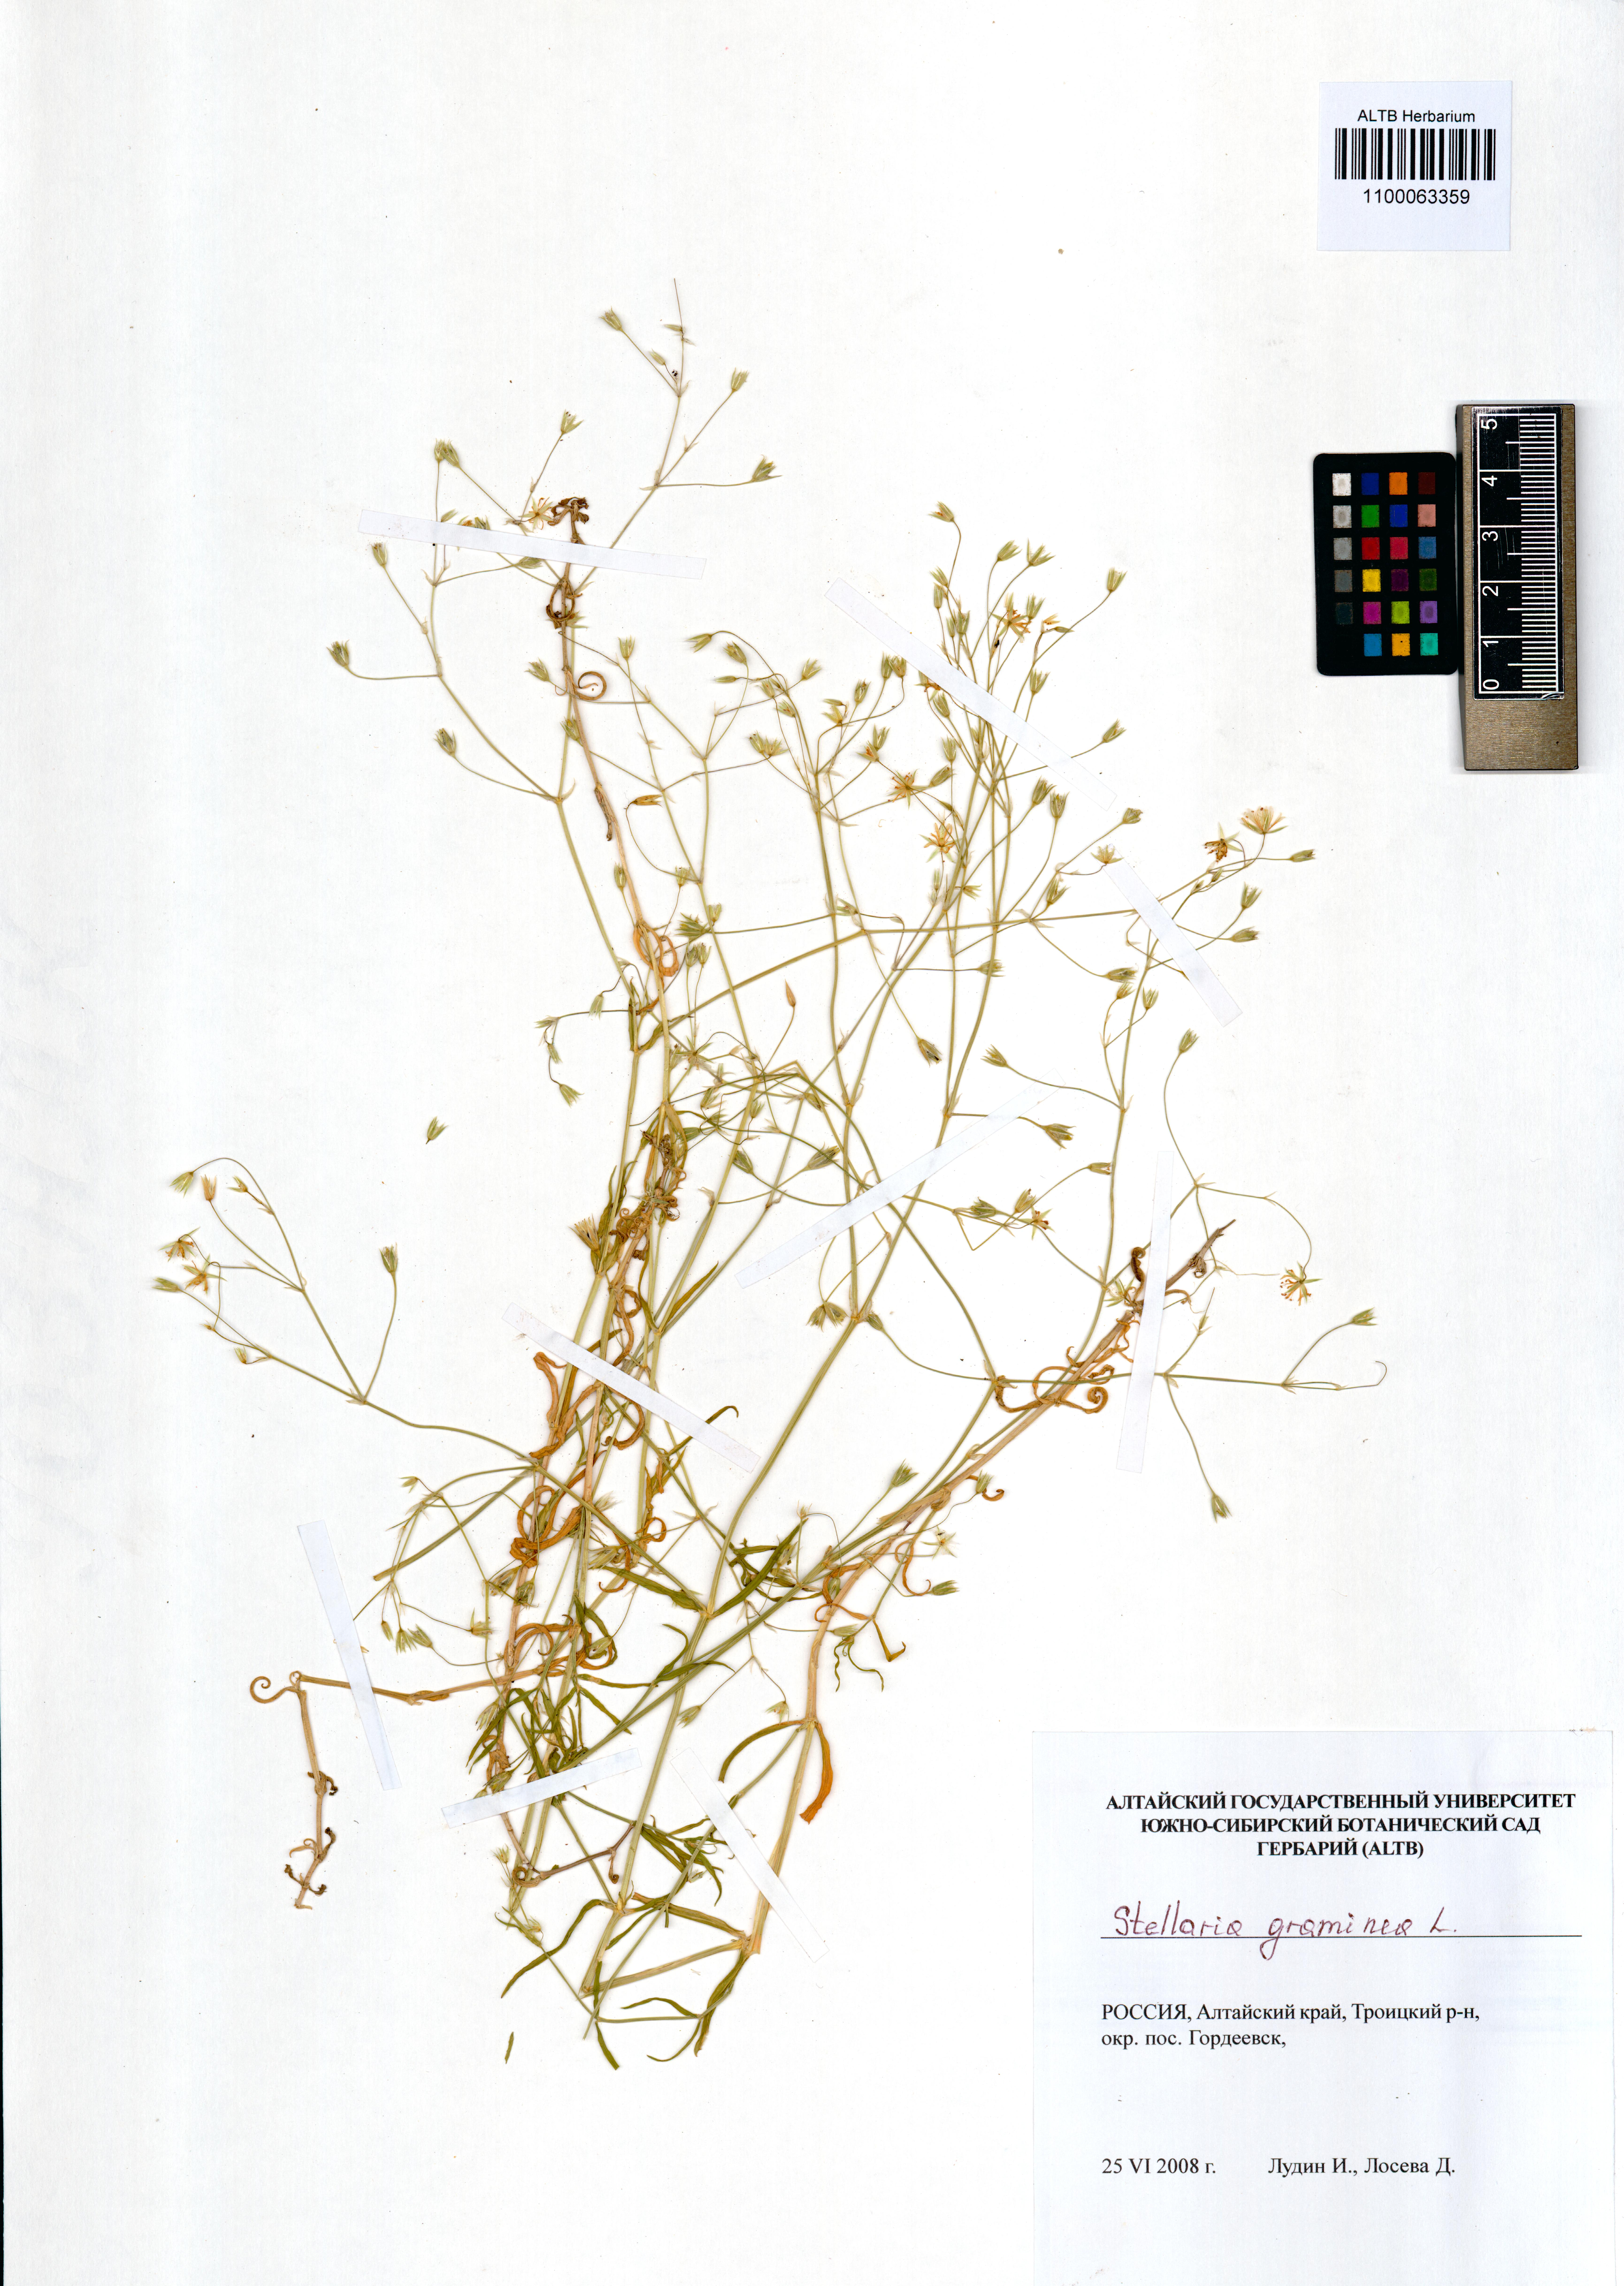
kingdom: Plantae
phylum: Tracheophyta
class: Magnoliopsida
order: Caryophyllales
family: Caryophyllaceae
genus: Stellaria
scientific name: Stellaria graminea
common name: Grass-like starwort
